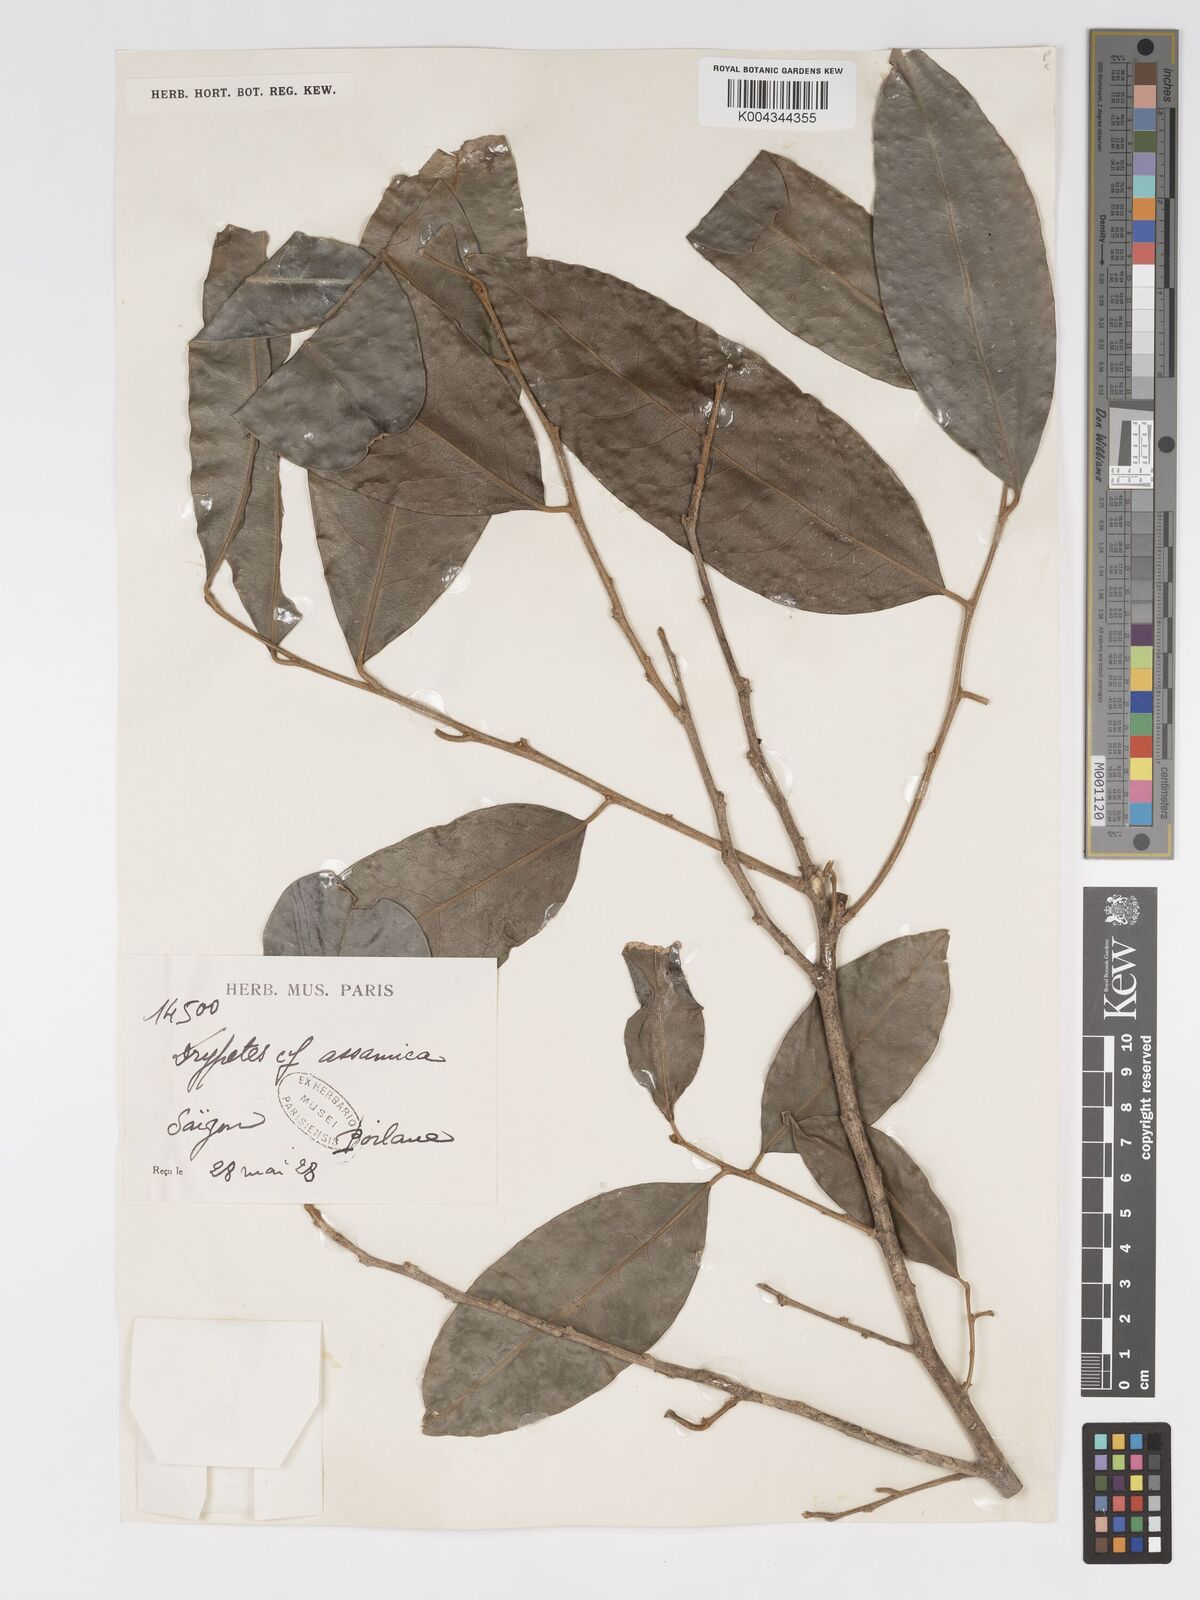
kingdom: Plantae
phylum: Tracheophyta
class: Magnoliopsida
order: Malpighiales
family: Putranjivaceae
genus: Drypetes
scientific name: Drypetes assamica
